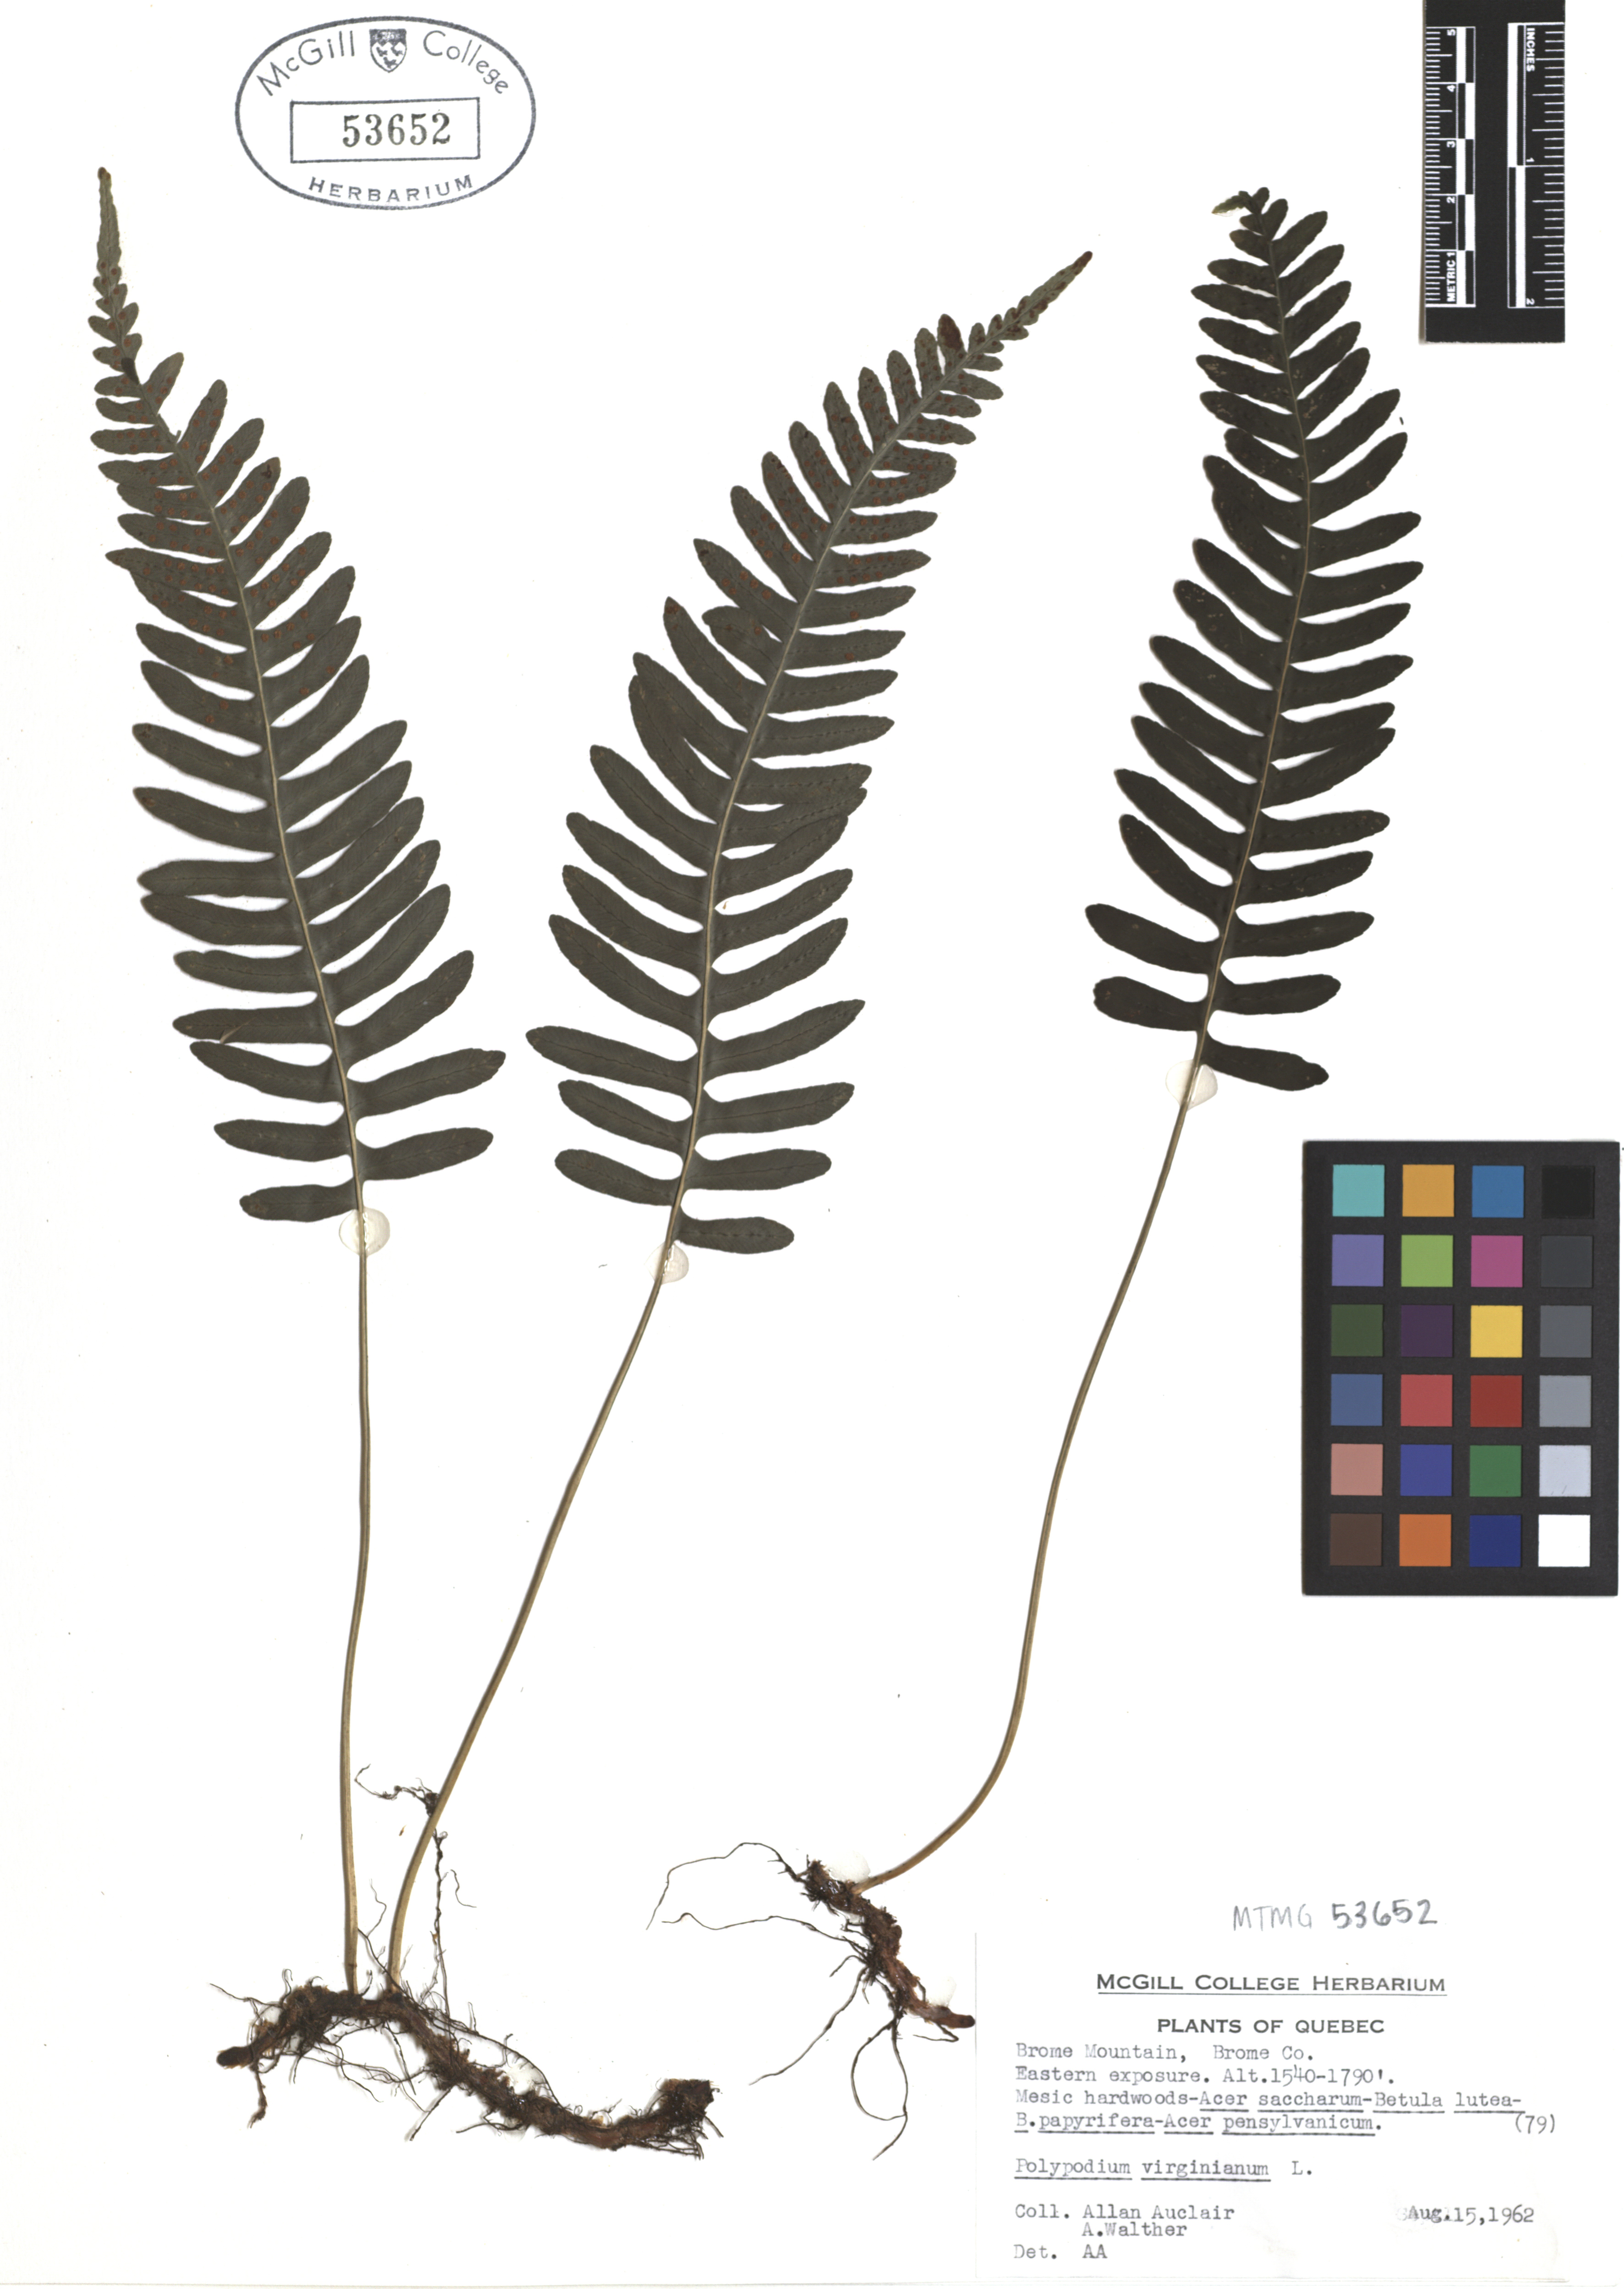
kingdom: Plantae
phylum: Tracheophyta
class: Polypodiopsida
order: Polypodiales
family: Polypodiaceae
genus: Polypodium
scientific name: Polypodium virginianum
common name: American wall fern
